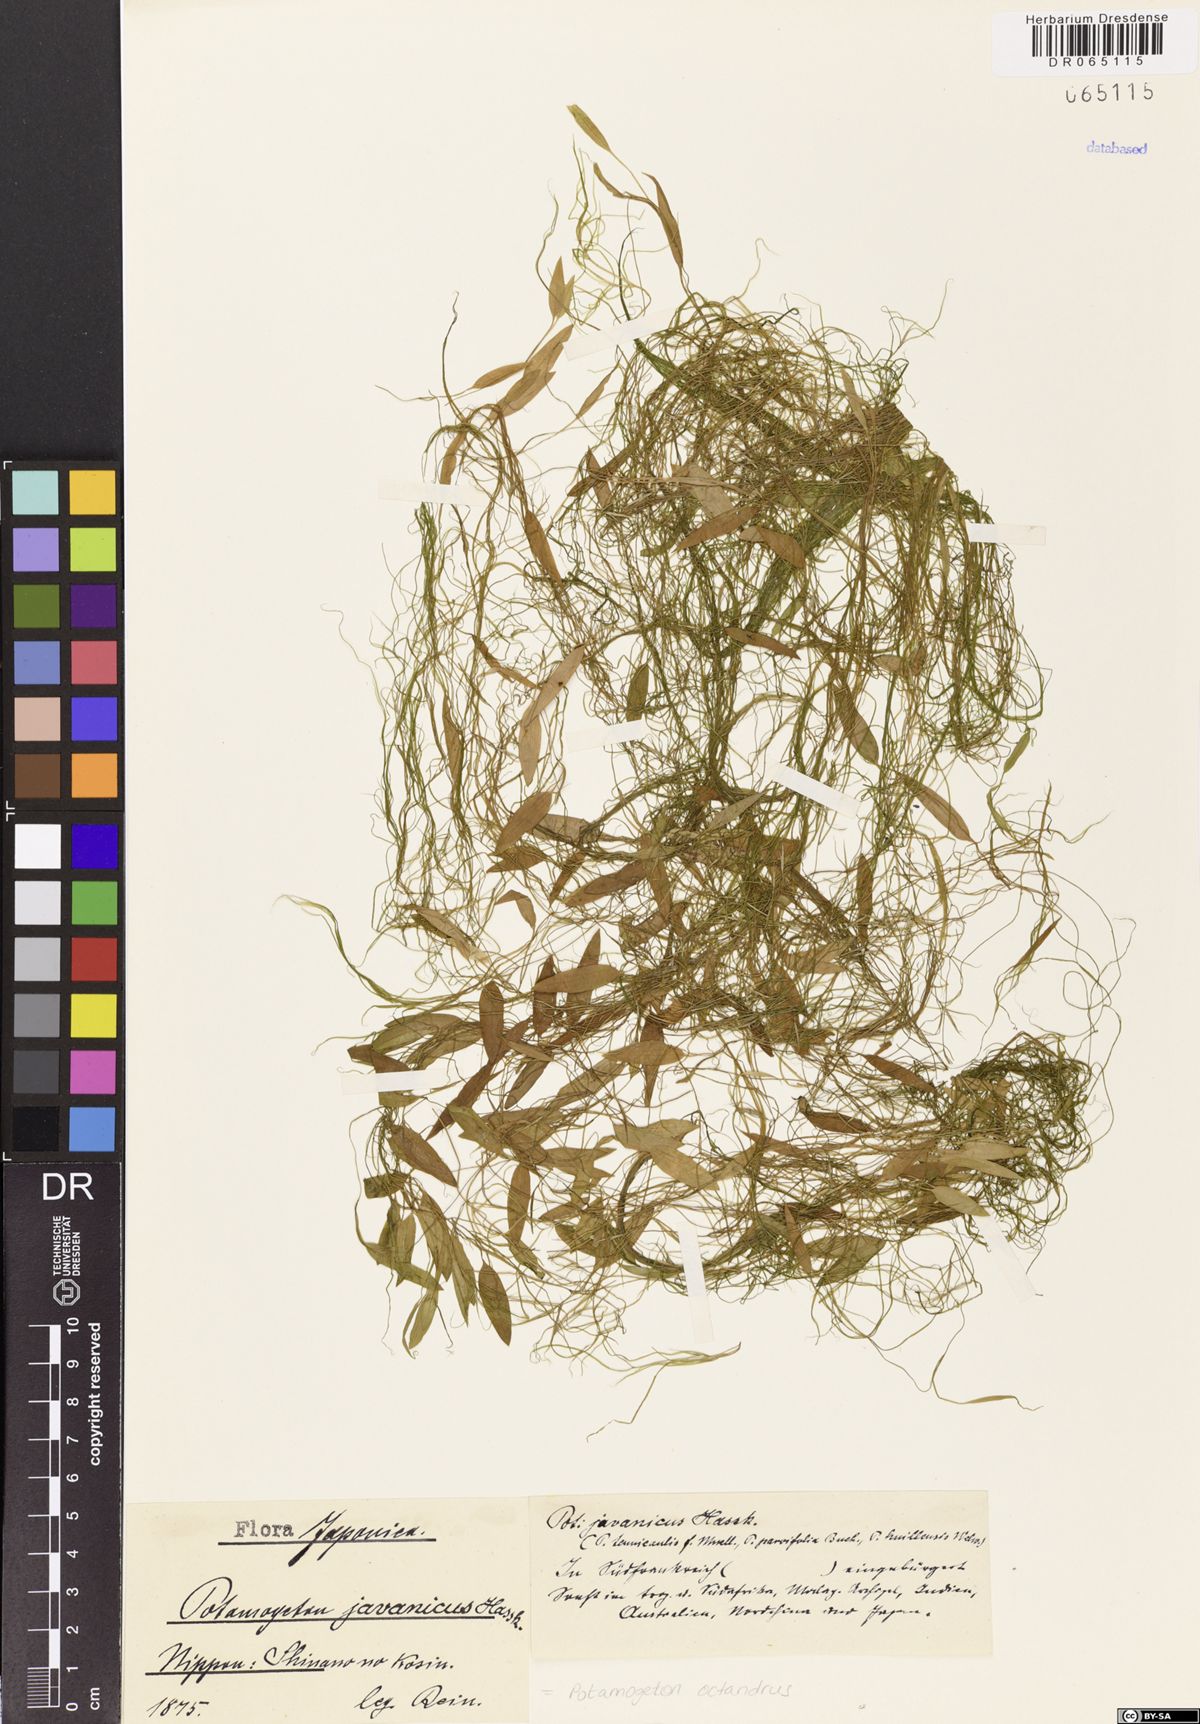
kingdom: Plantae
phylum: Tracheophyta
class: Liliopsida
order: Alismatales
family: Potamogetonaceae
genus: Potamogeton
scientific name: Potamogeton octandrus
